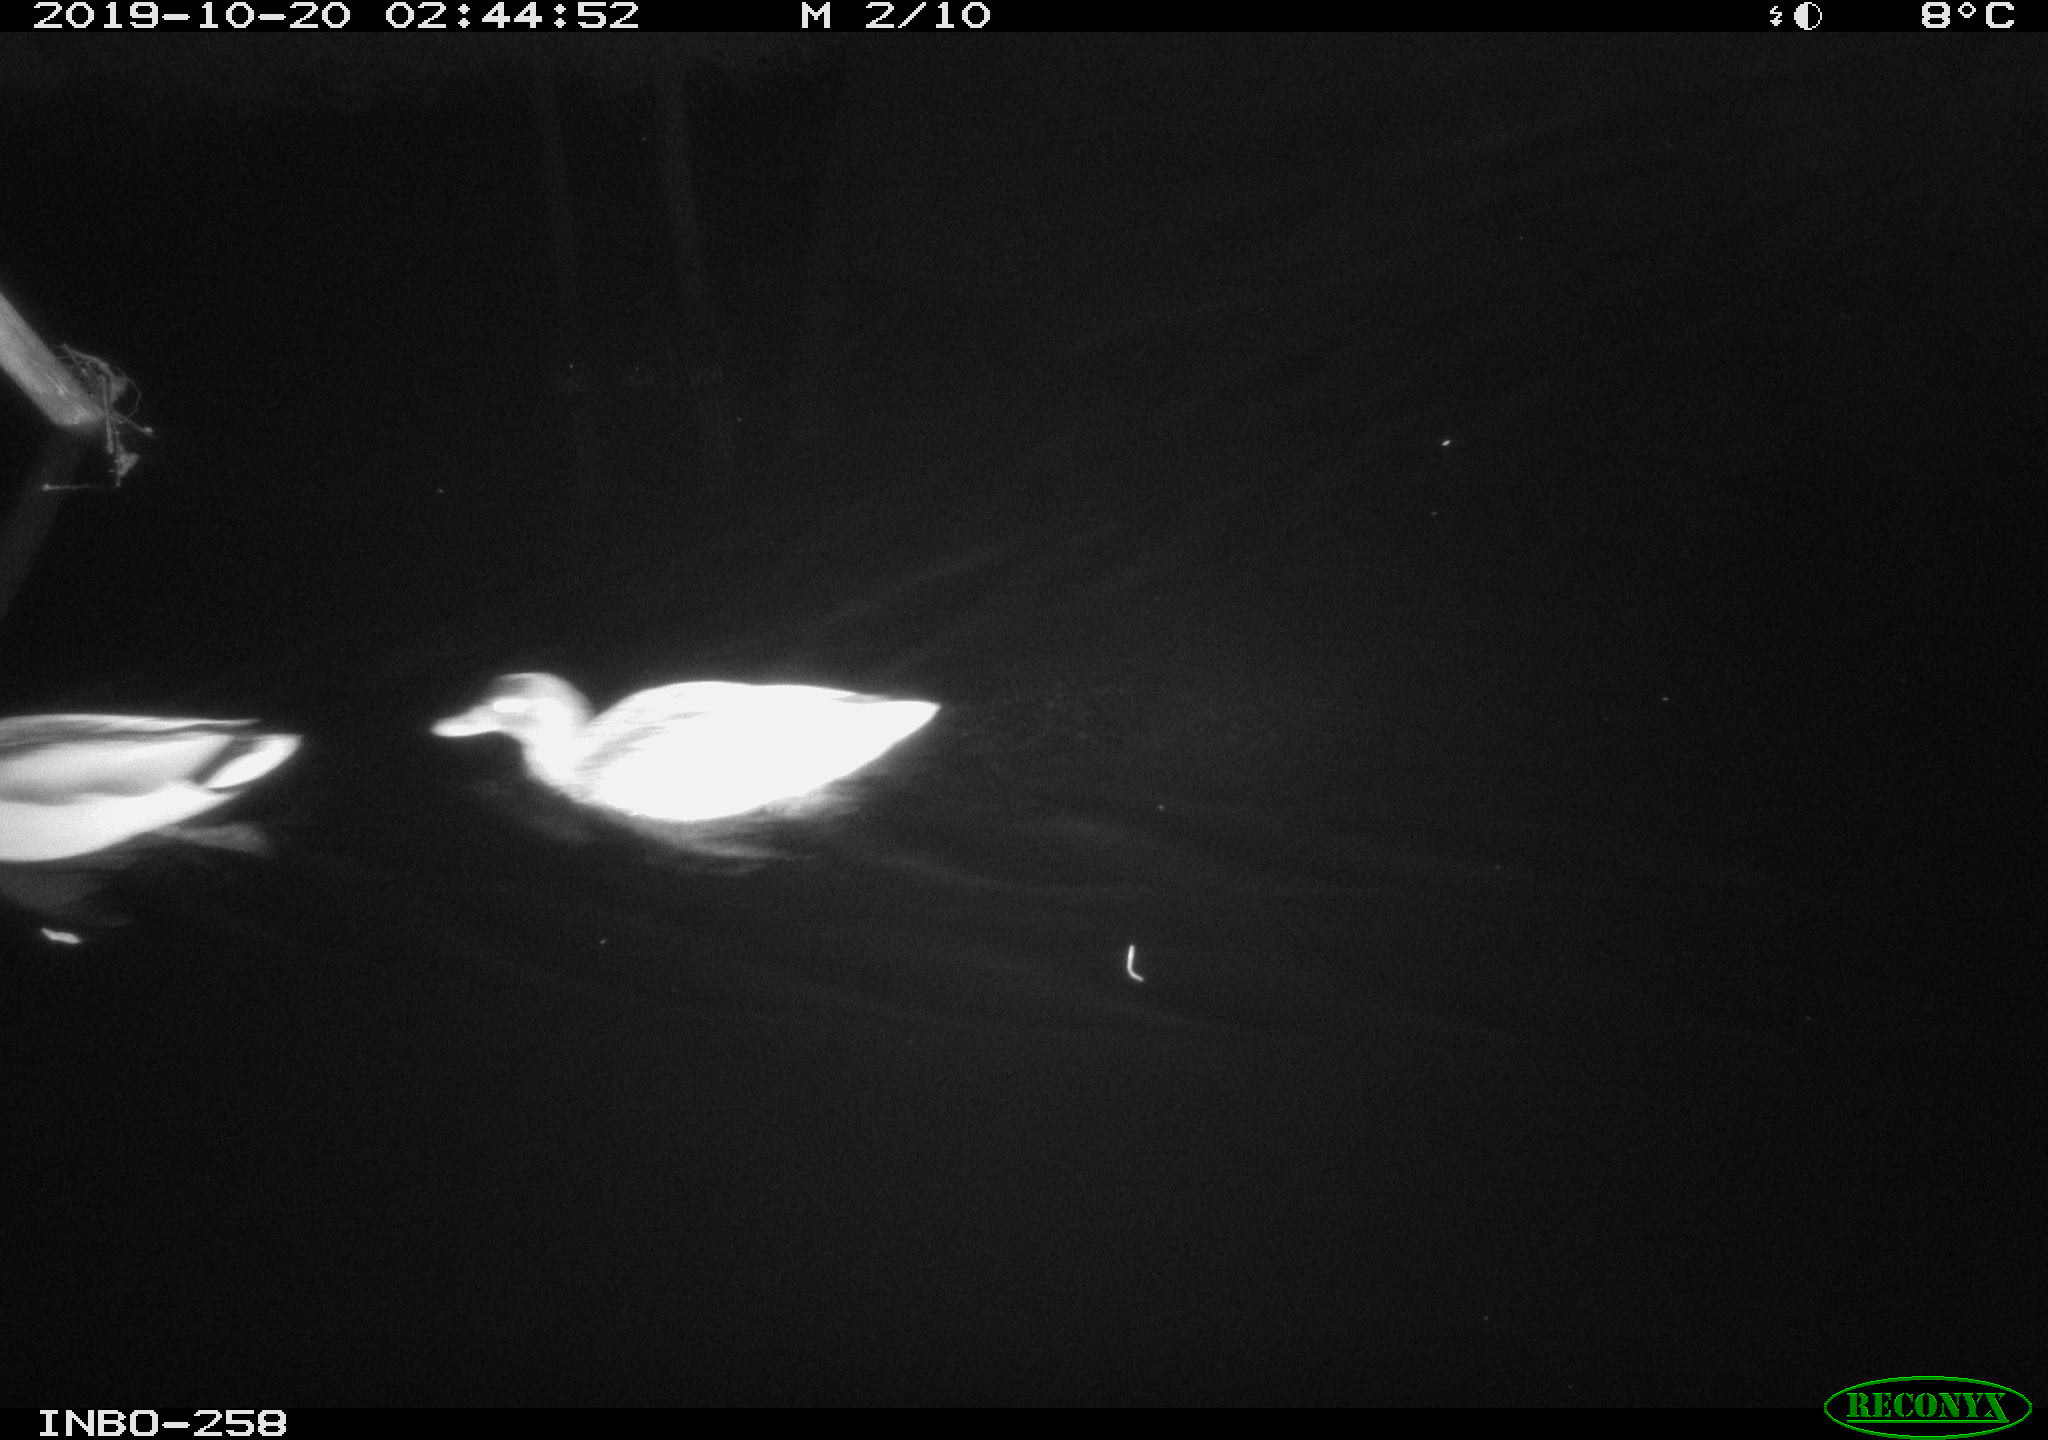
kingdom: Animalia
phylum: Chordata
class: Aves
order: Anseriformes
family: Anatidae
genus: Anas
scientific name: Anas platyrhynchos
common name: Mallard
